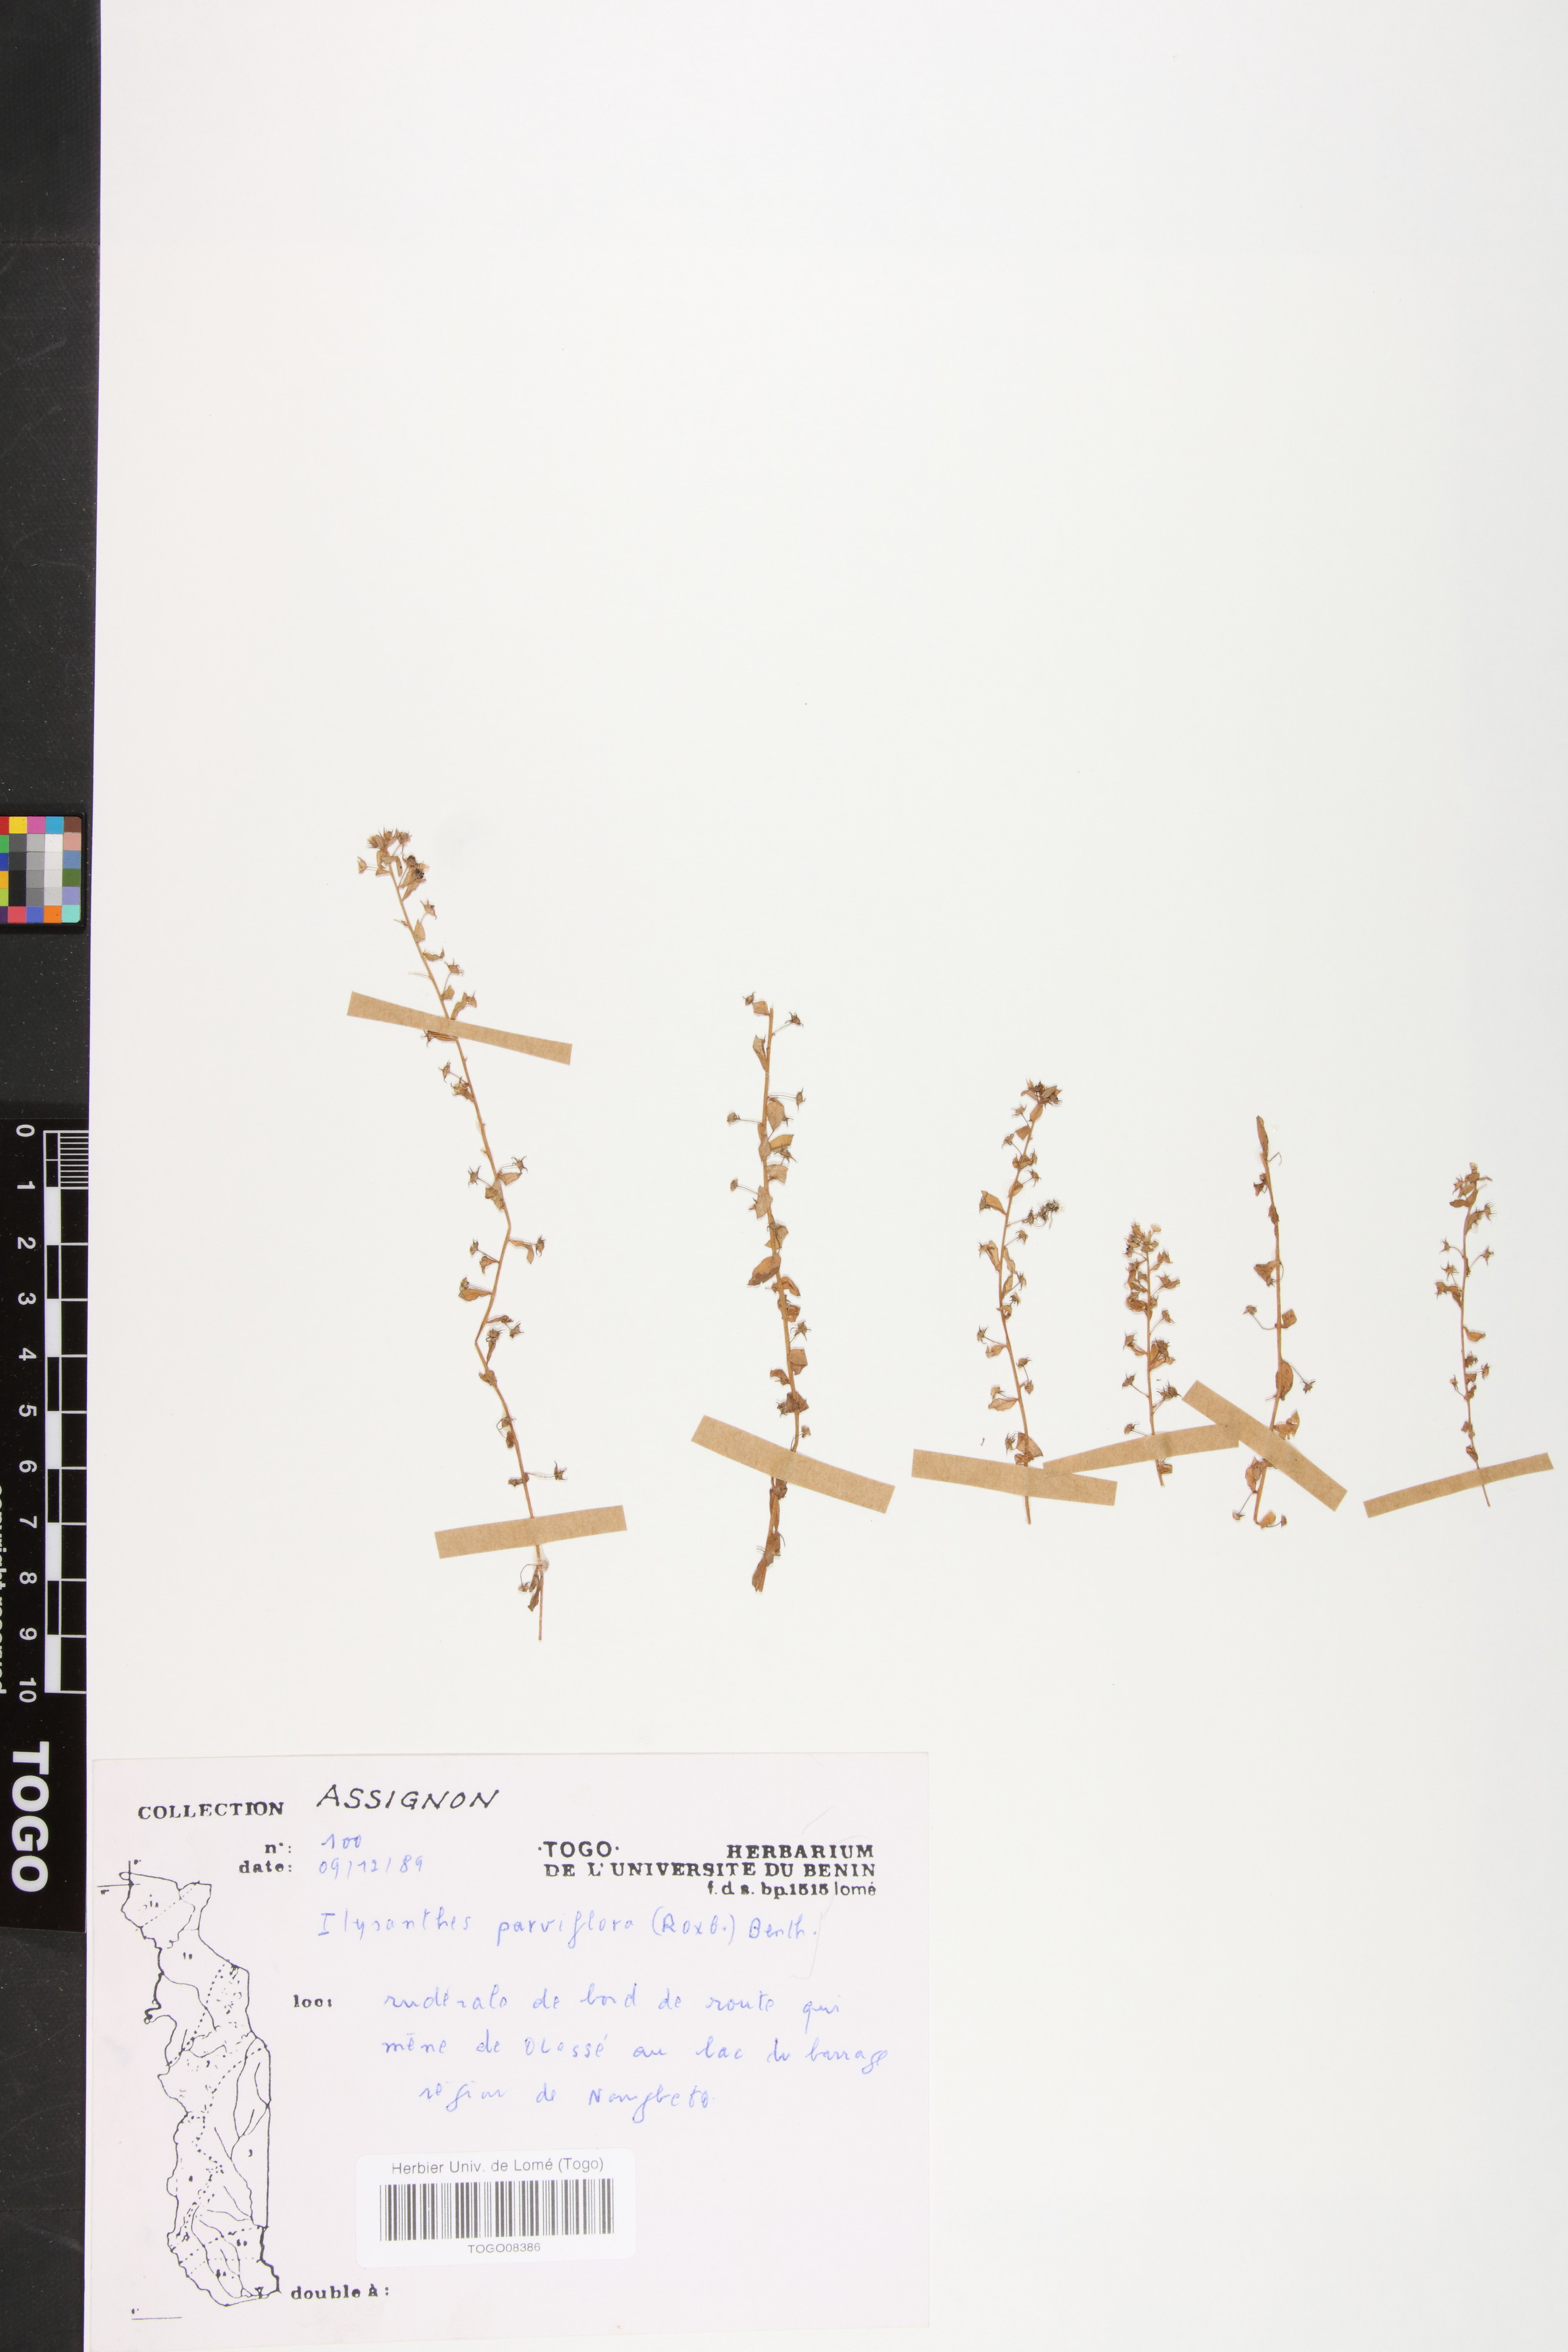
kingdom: Plantae
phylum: Tracheophyta
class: Magnoliopsida
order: Lamiales
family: Linderniaceae
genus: Lindernia
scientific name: Lindernia parviflora
